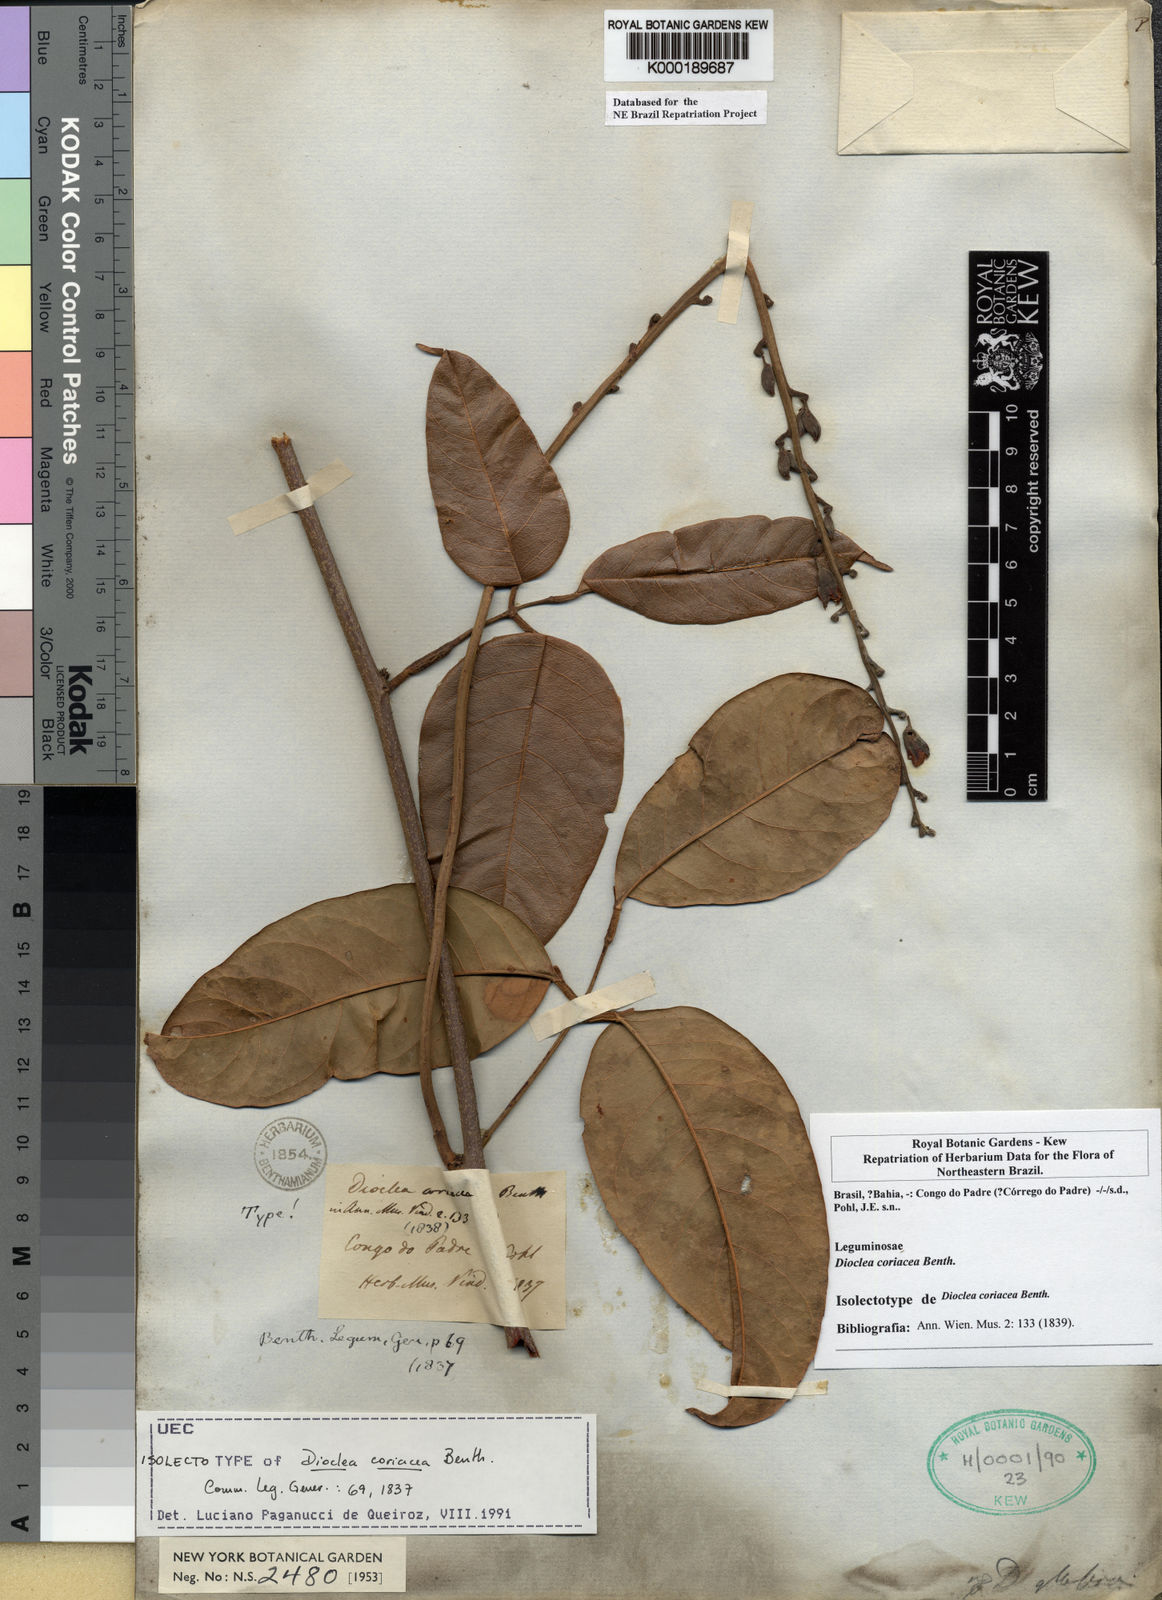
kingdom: Plantae
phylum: Tracheophyta
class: Magnoliopsida
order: Fabales
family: Fabaceae
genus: Macropsychanthus
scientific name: Macropsychanthus coriaceus
